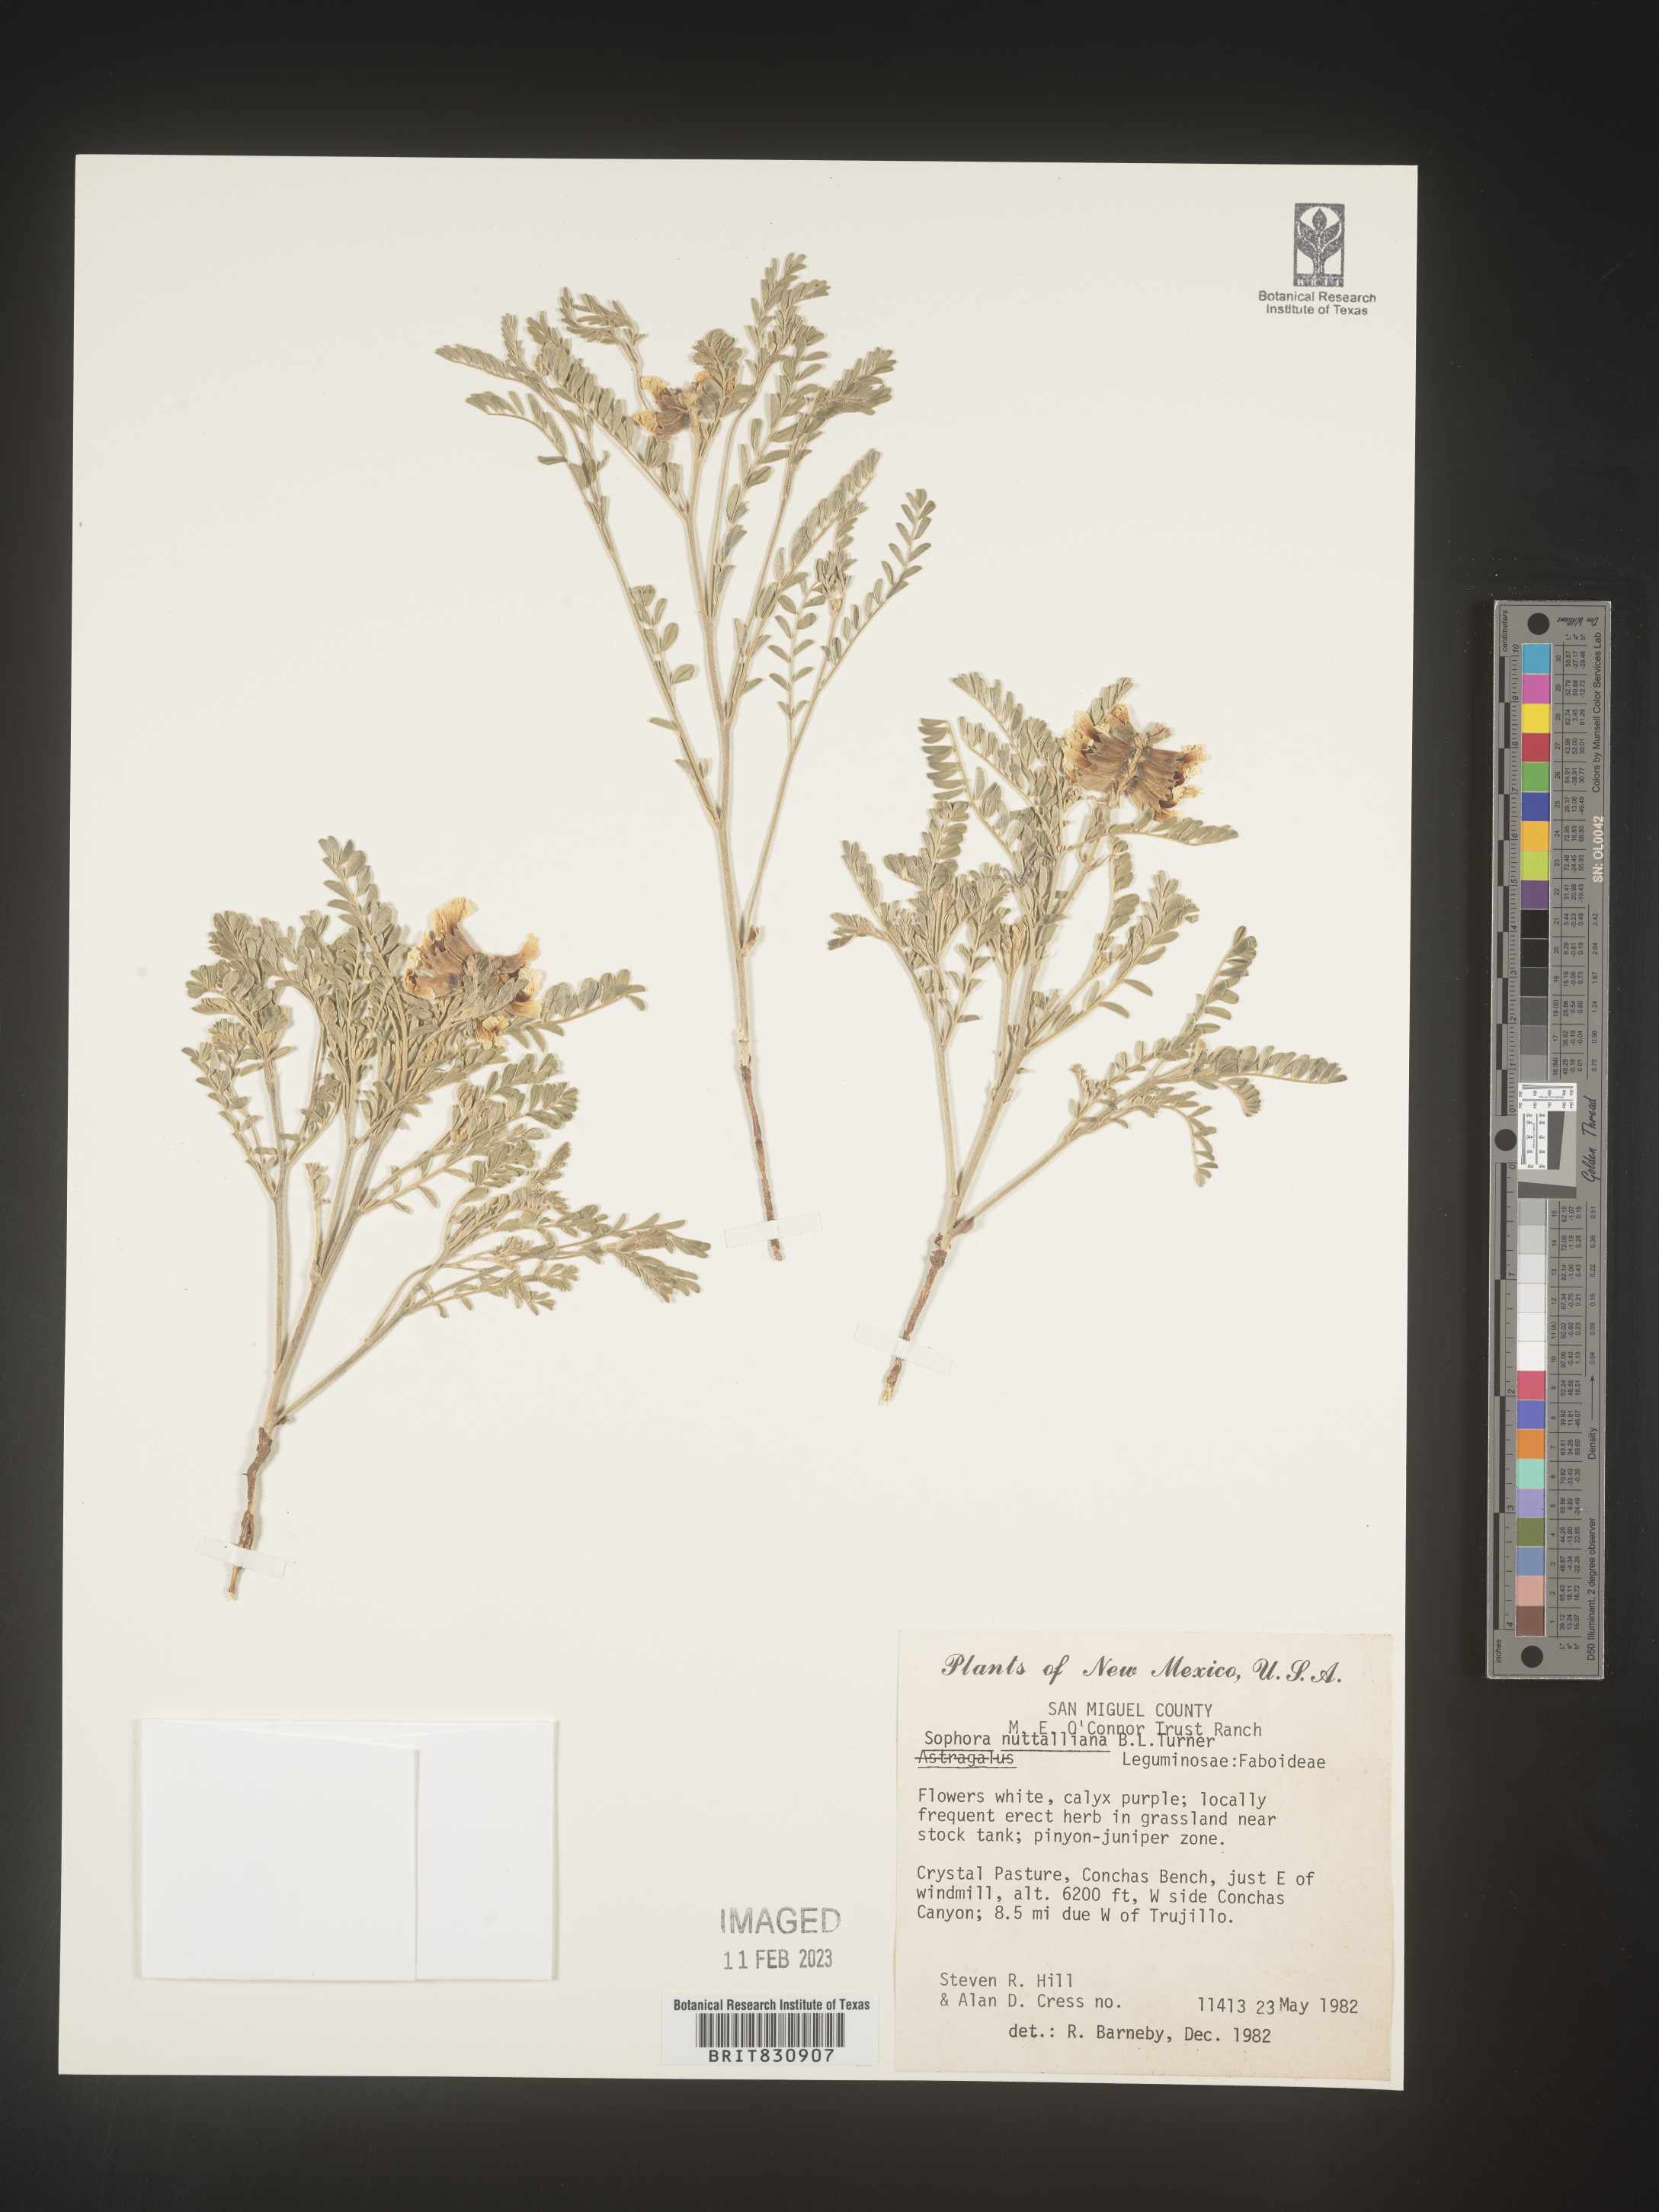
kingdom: Plantae
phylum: Tracheophyta
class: Magnoliopsida
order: Fabales
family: Fabaceae
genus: Sophora
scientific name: Sophora nuttalliana
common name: Silky sophora
